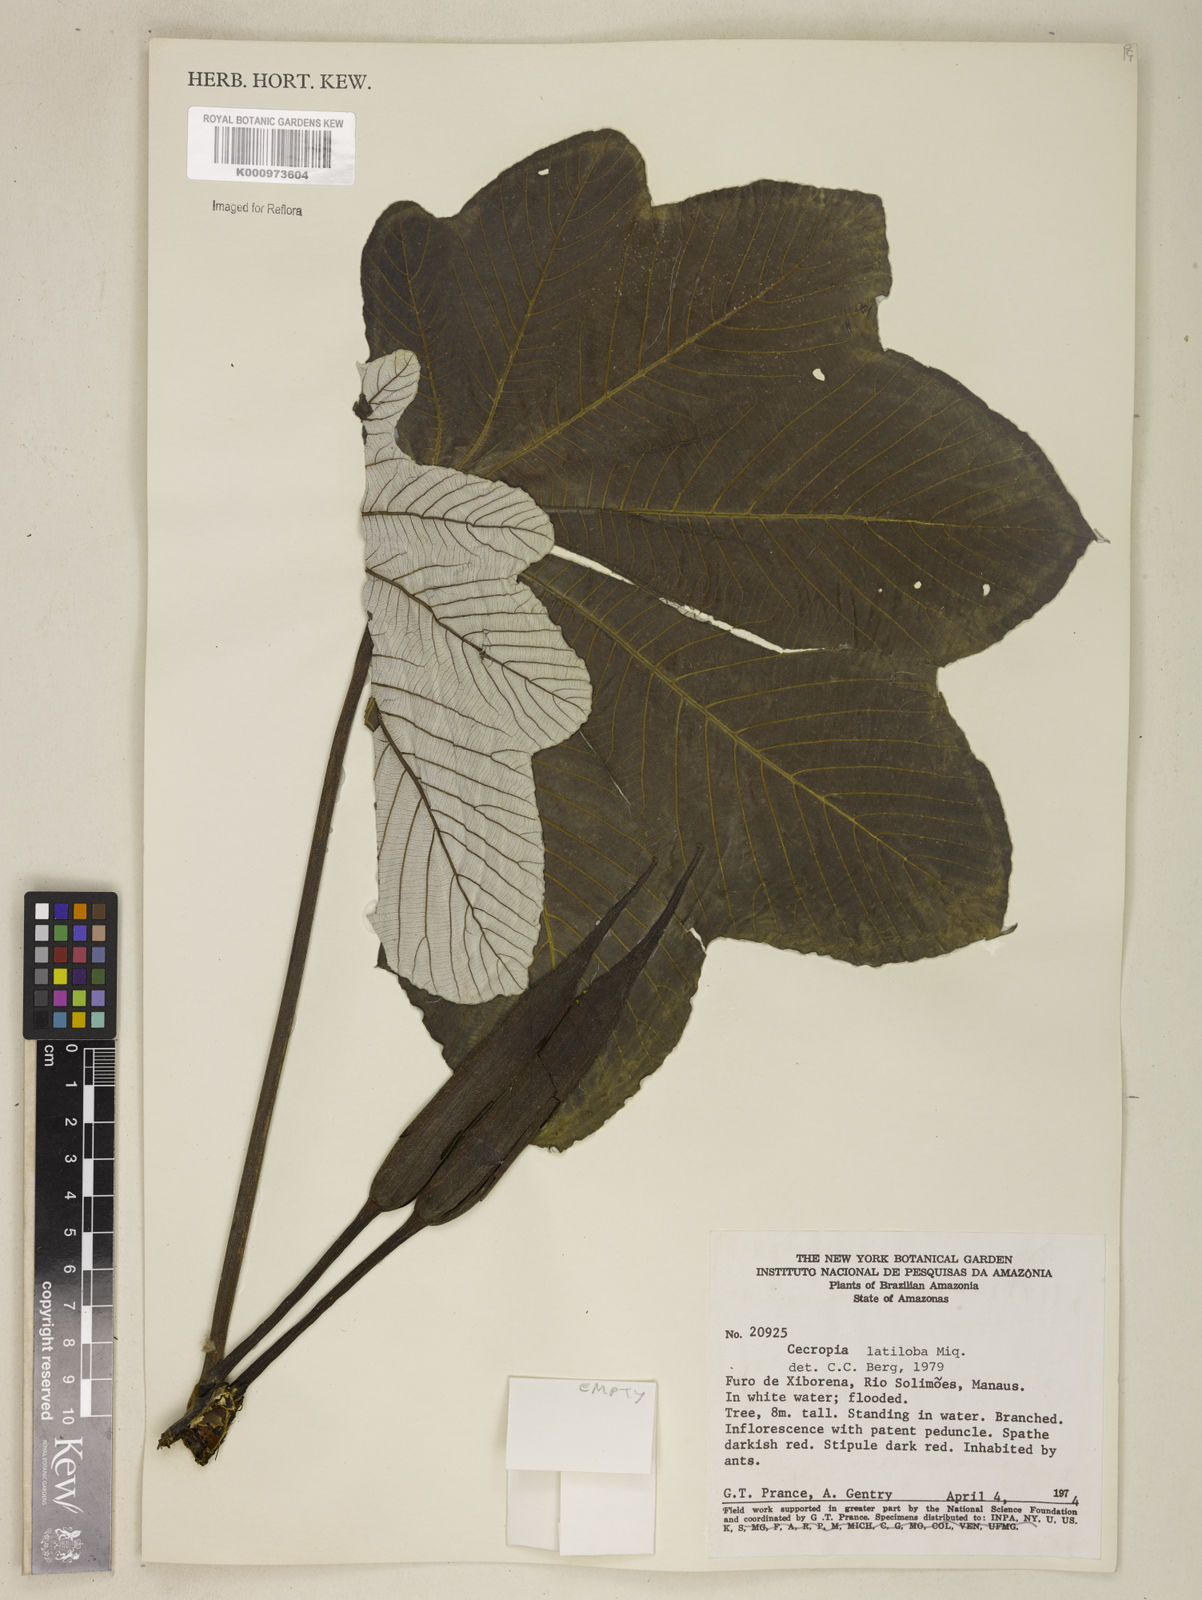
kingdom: Plantae
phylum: Tracheophyta
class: Magnoliopsida
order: Rosales
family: Urticaceae
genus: Cecropia
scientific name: Cecropia latiloba
